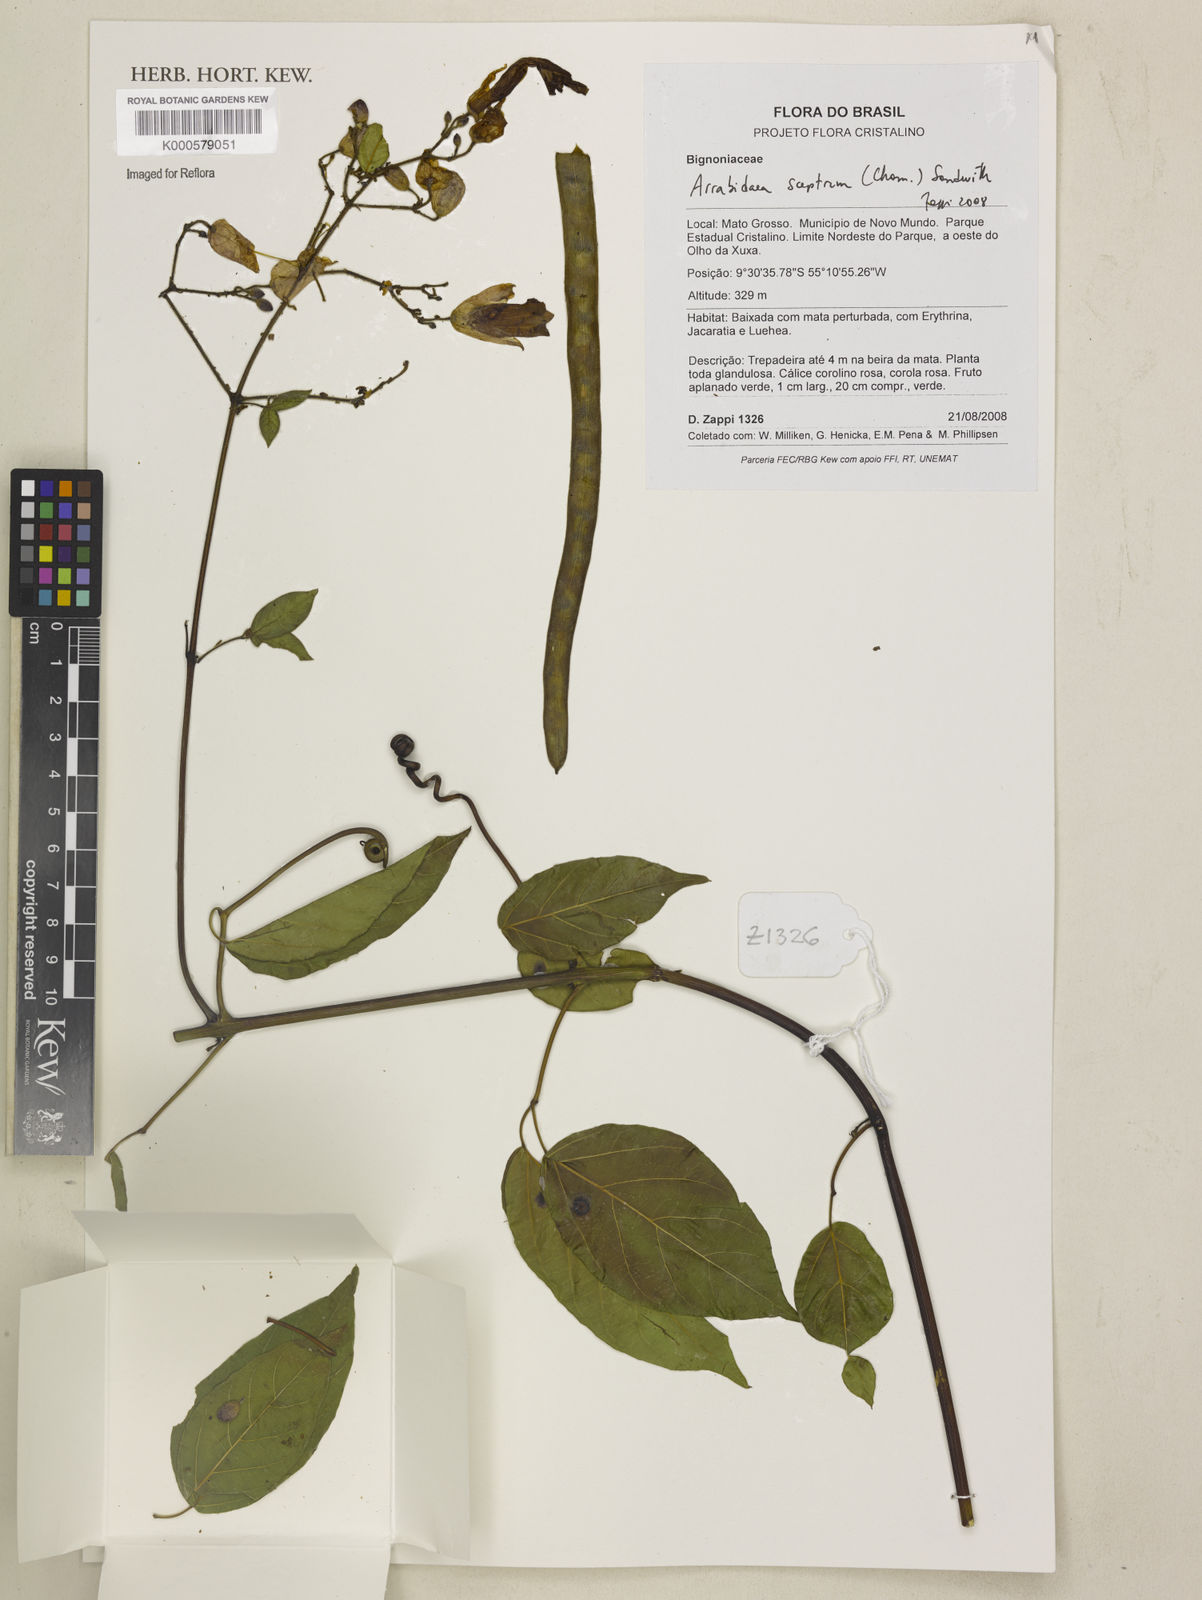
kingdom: Plantae
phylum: Tracheophyta
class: Magnoliopsida
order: Lamiales
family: Bignoniaceae
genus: Cuspidaria
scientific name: Cuspidaria sceptrum
